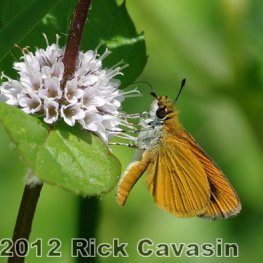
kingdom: Animalia
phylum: Arthropoda
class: Insecta
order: Lepidoptera
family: Hesperiidae
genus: Ancyloxypha
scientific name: Ancyloxypha numitor
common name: Least Skipper
